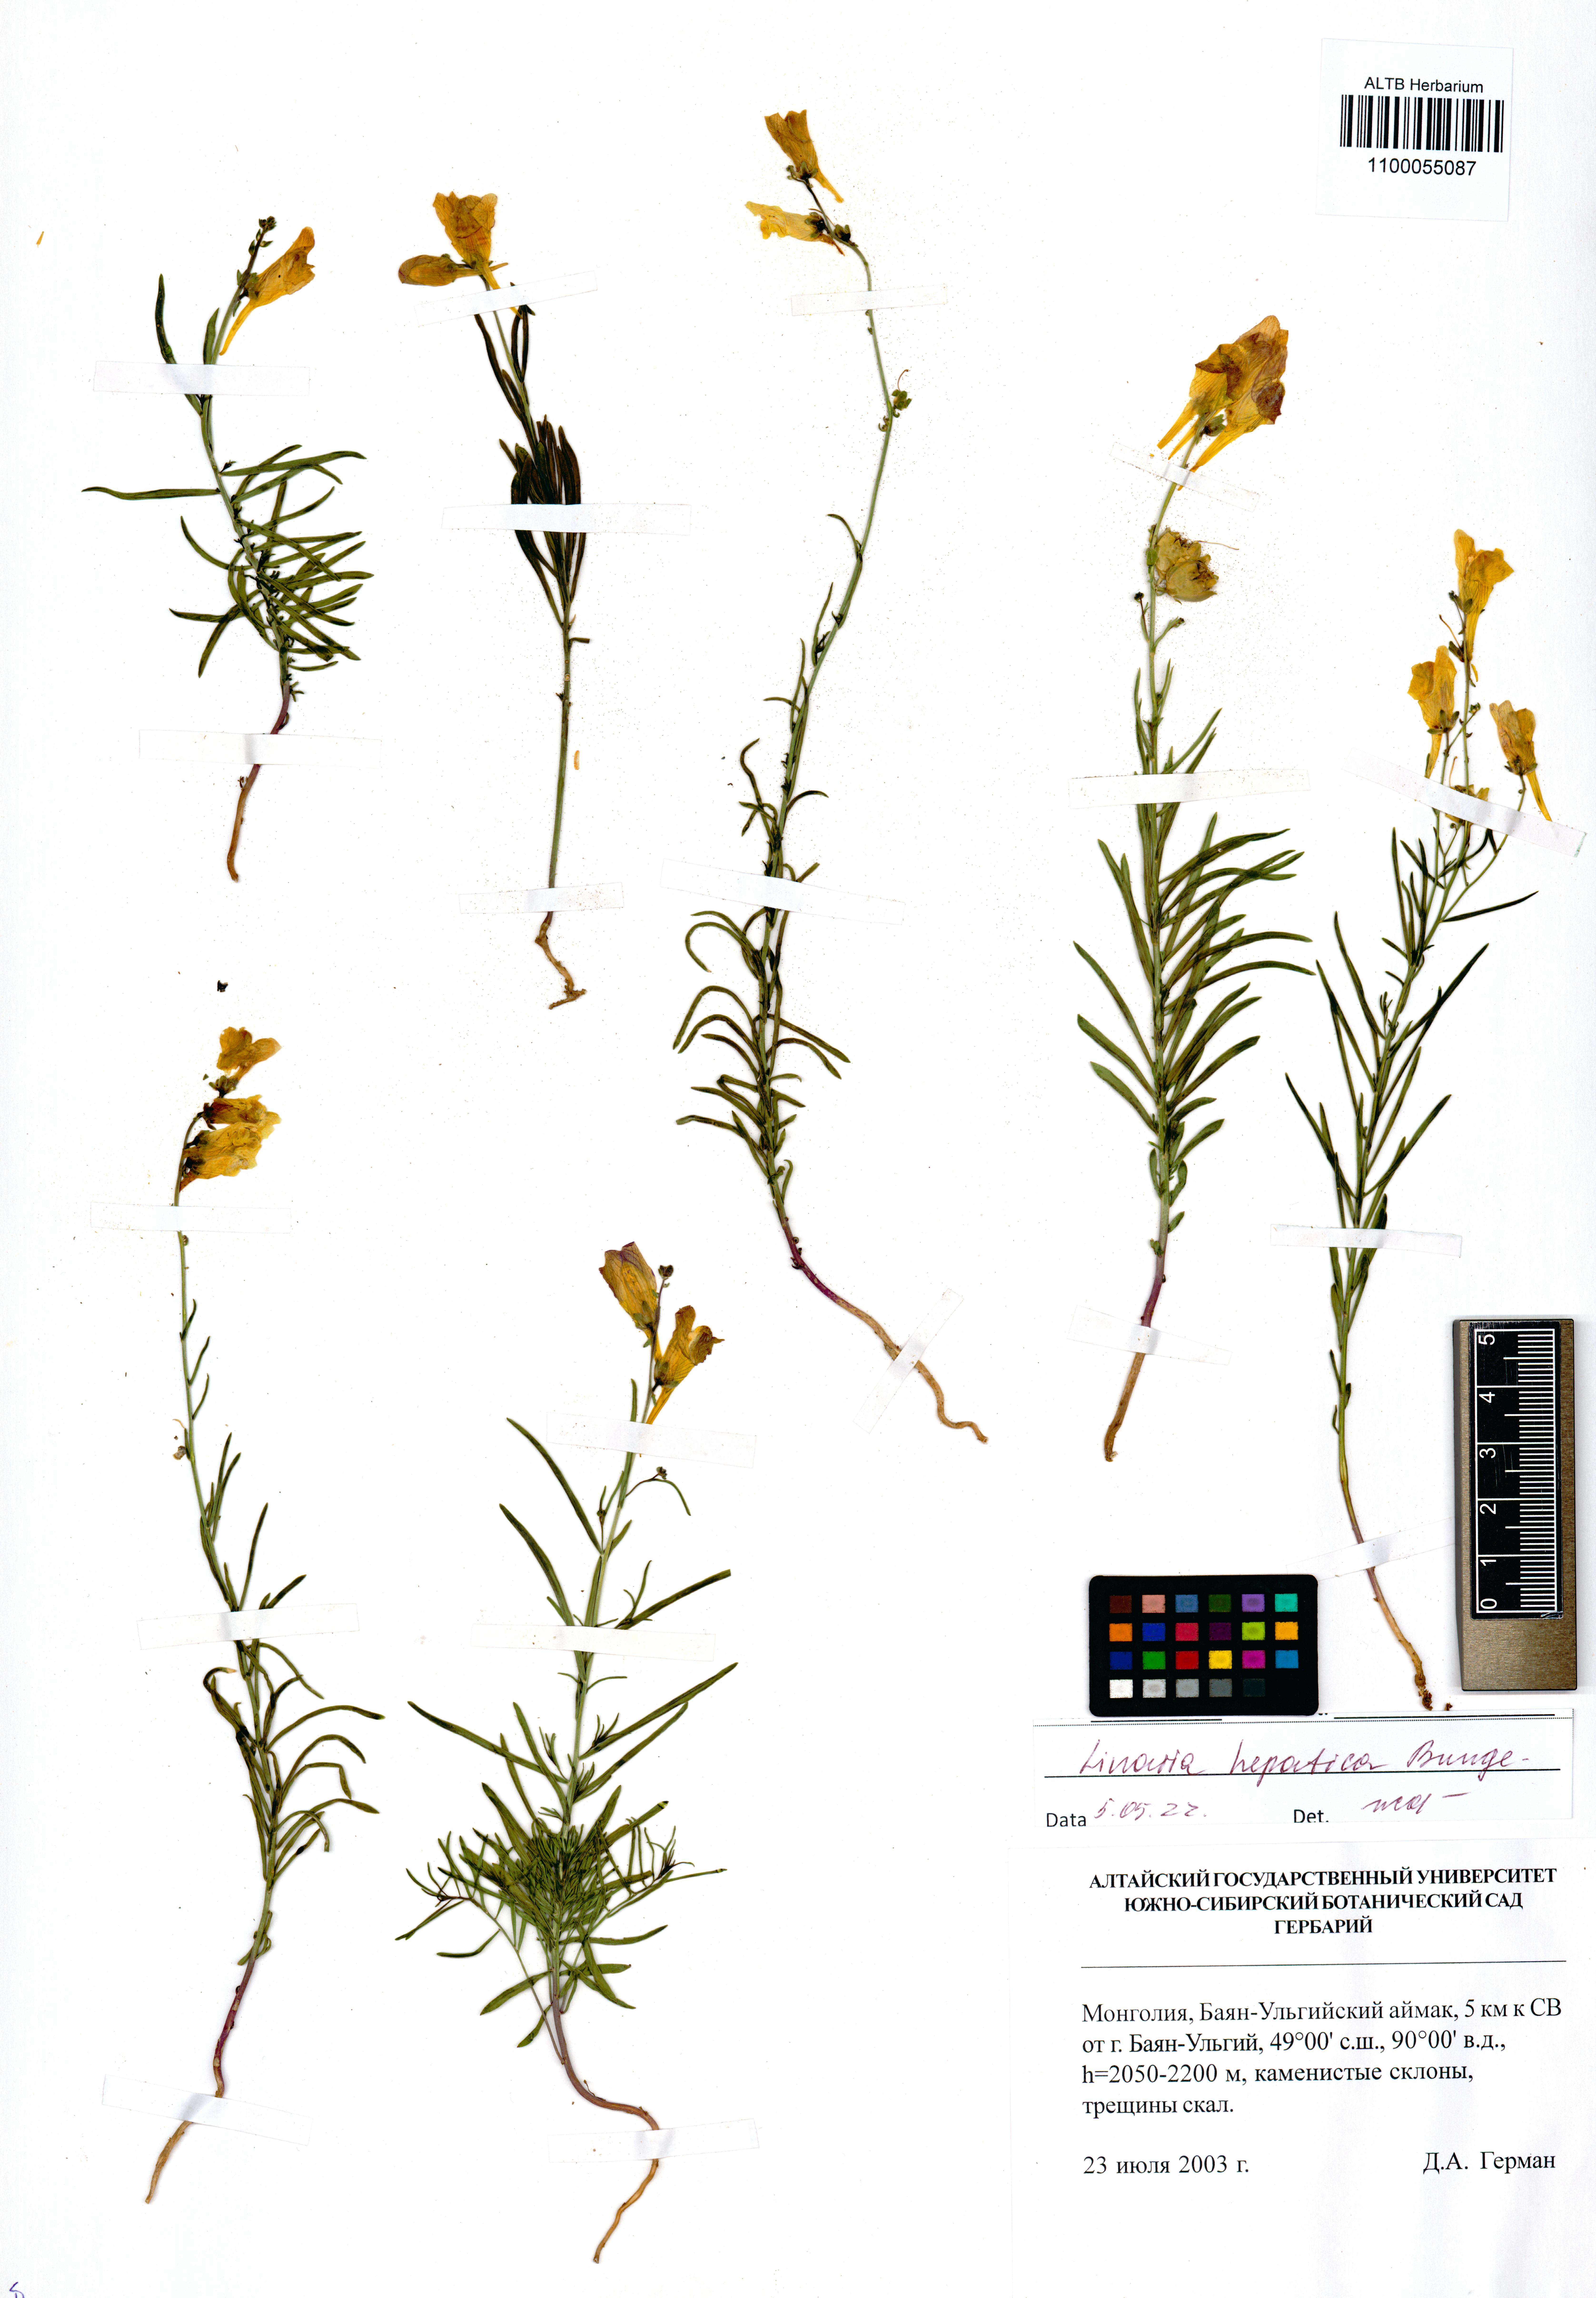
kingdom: Plantae
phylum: Tracheophyta
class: Magnoliopsida
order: Lamiales
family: Plantaginaceae
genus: Linaria
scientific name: Linaria hepatica
